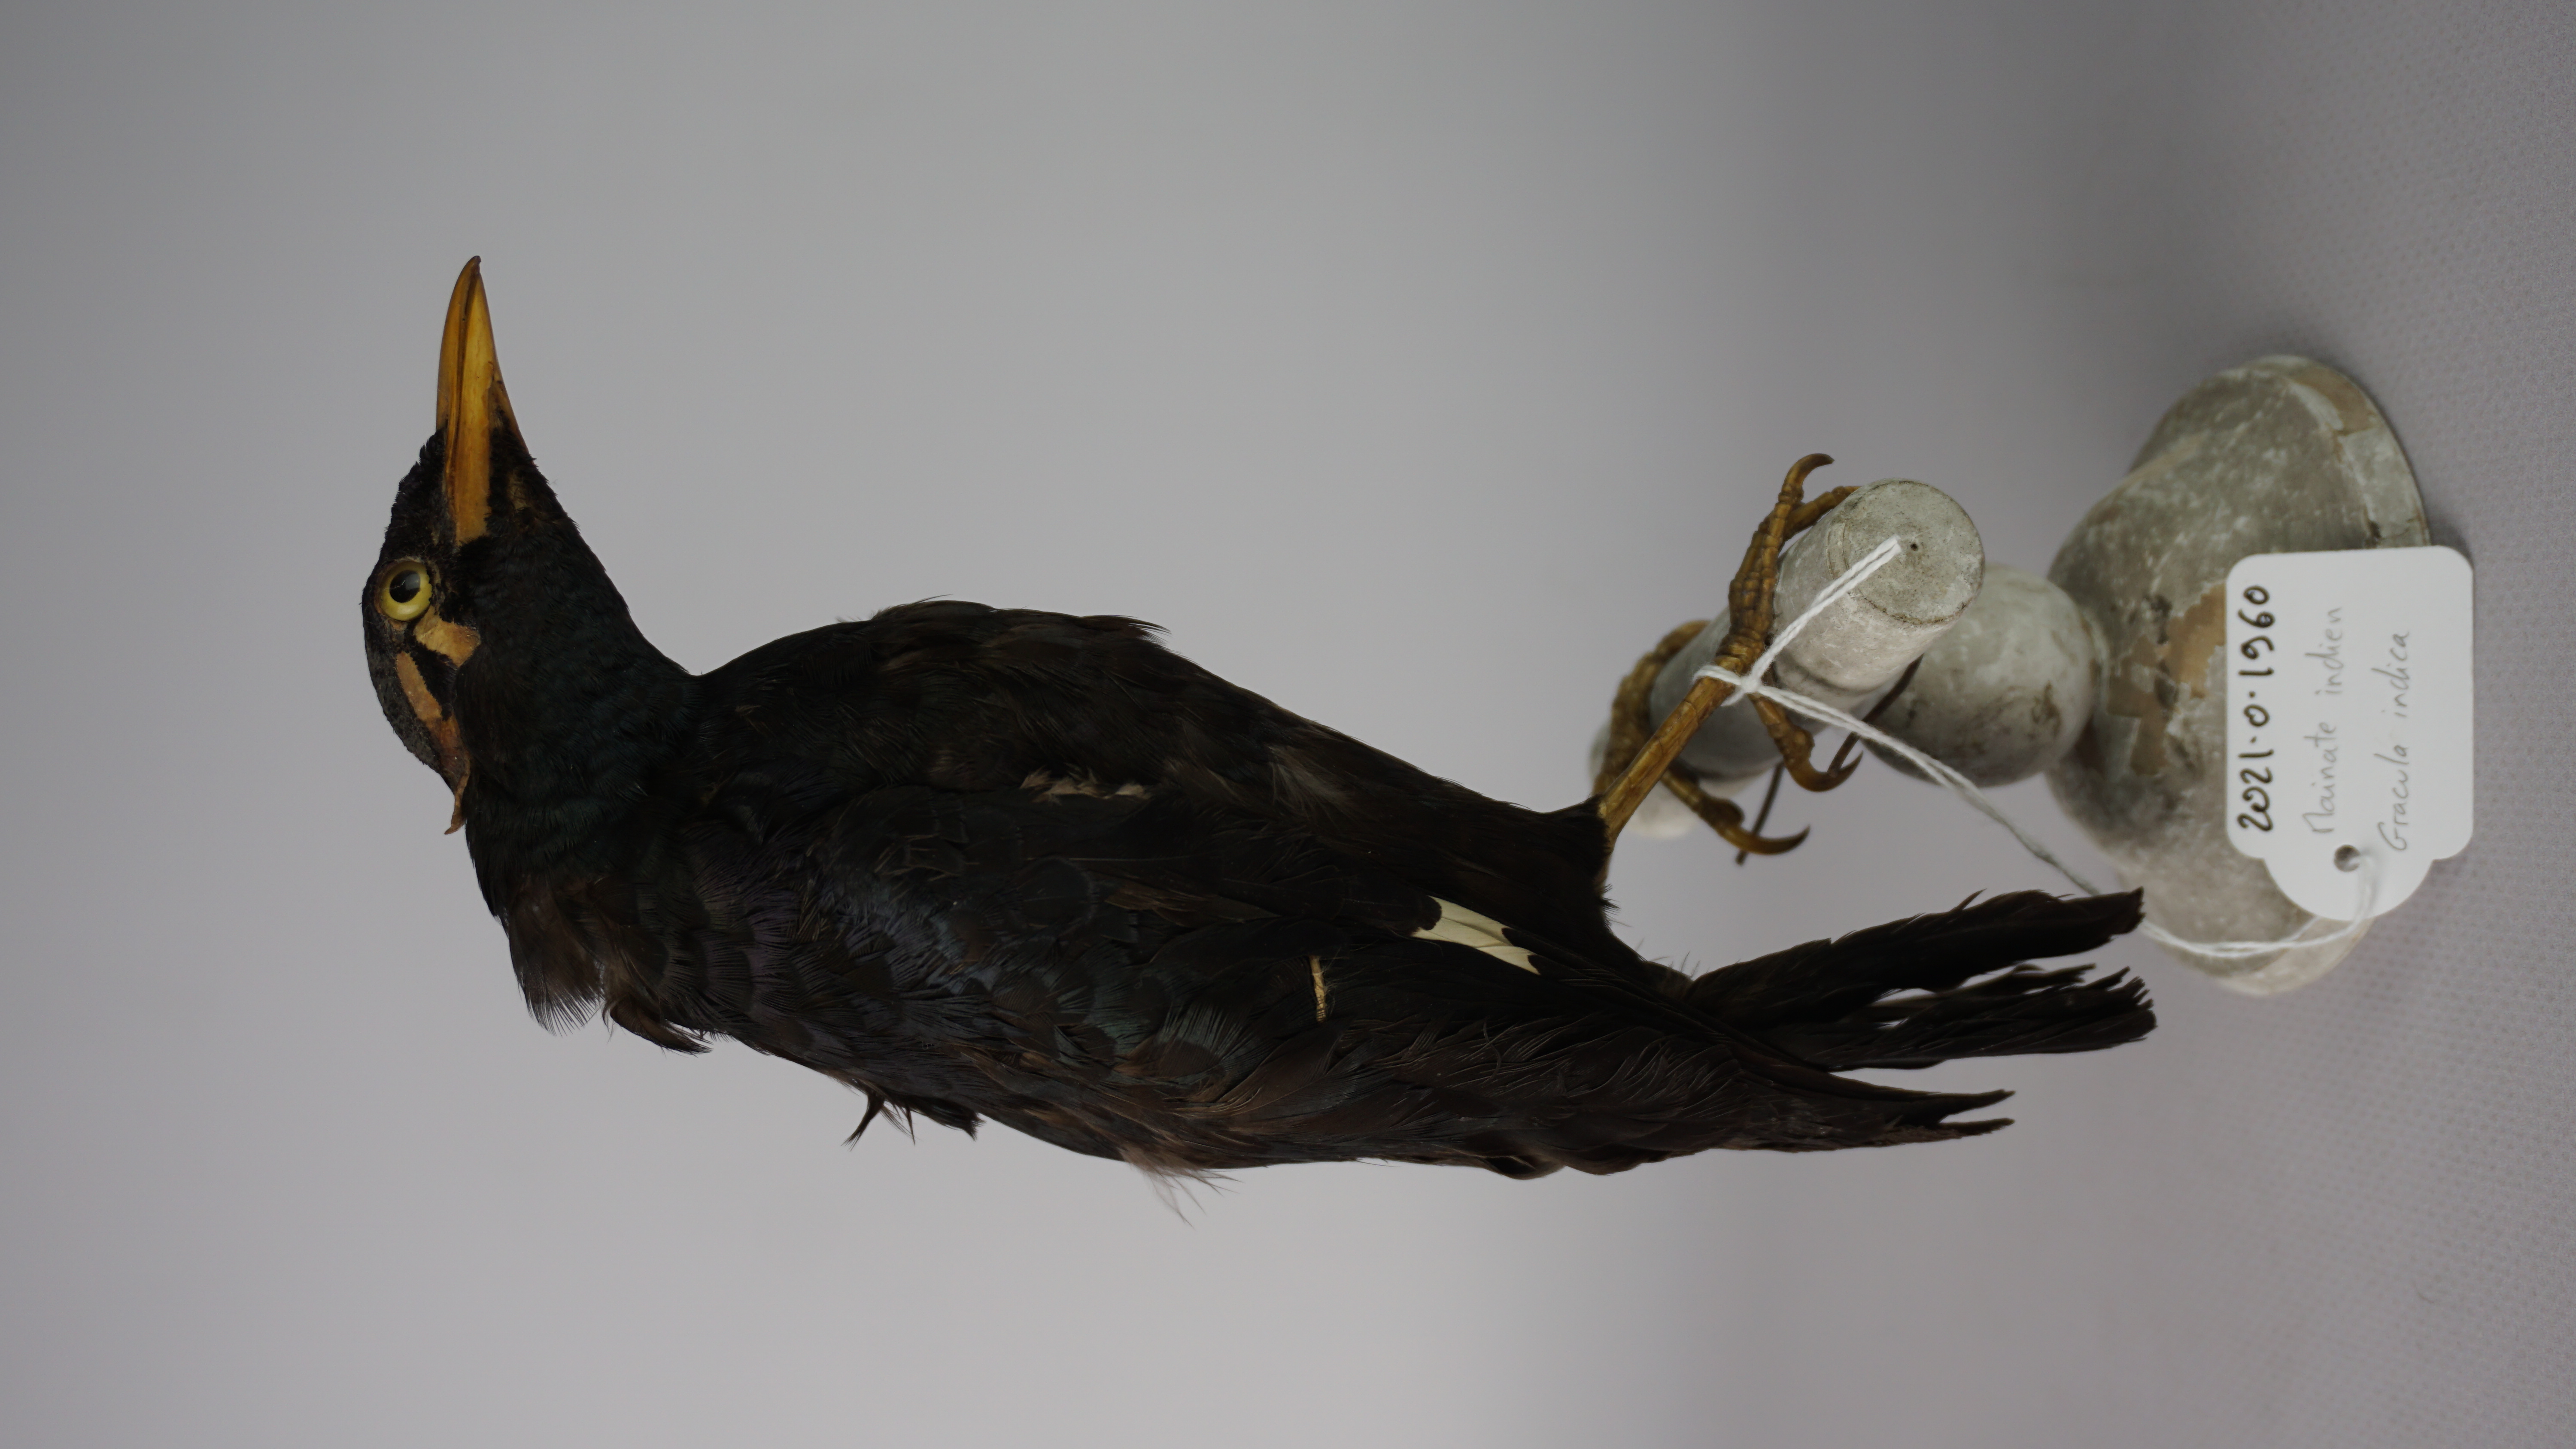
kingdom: Animalia
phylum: Chordata
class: Aves
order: Passeriformes
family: Sturnidae
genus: Gracula
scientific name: Gracula indica
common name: Southern hill myna
